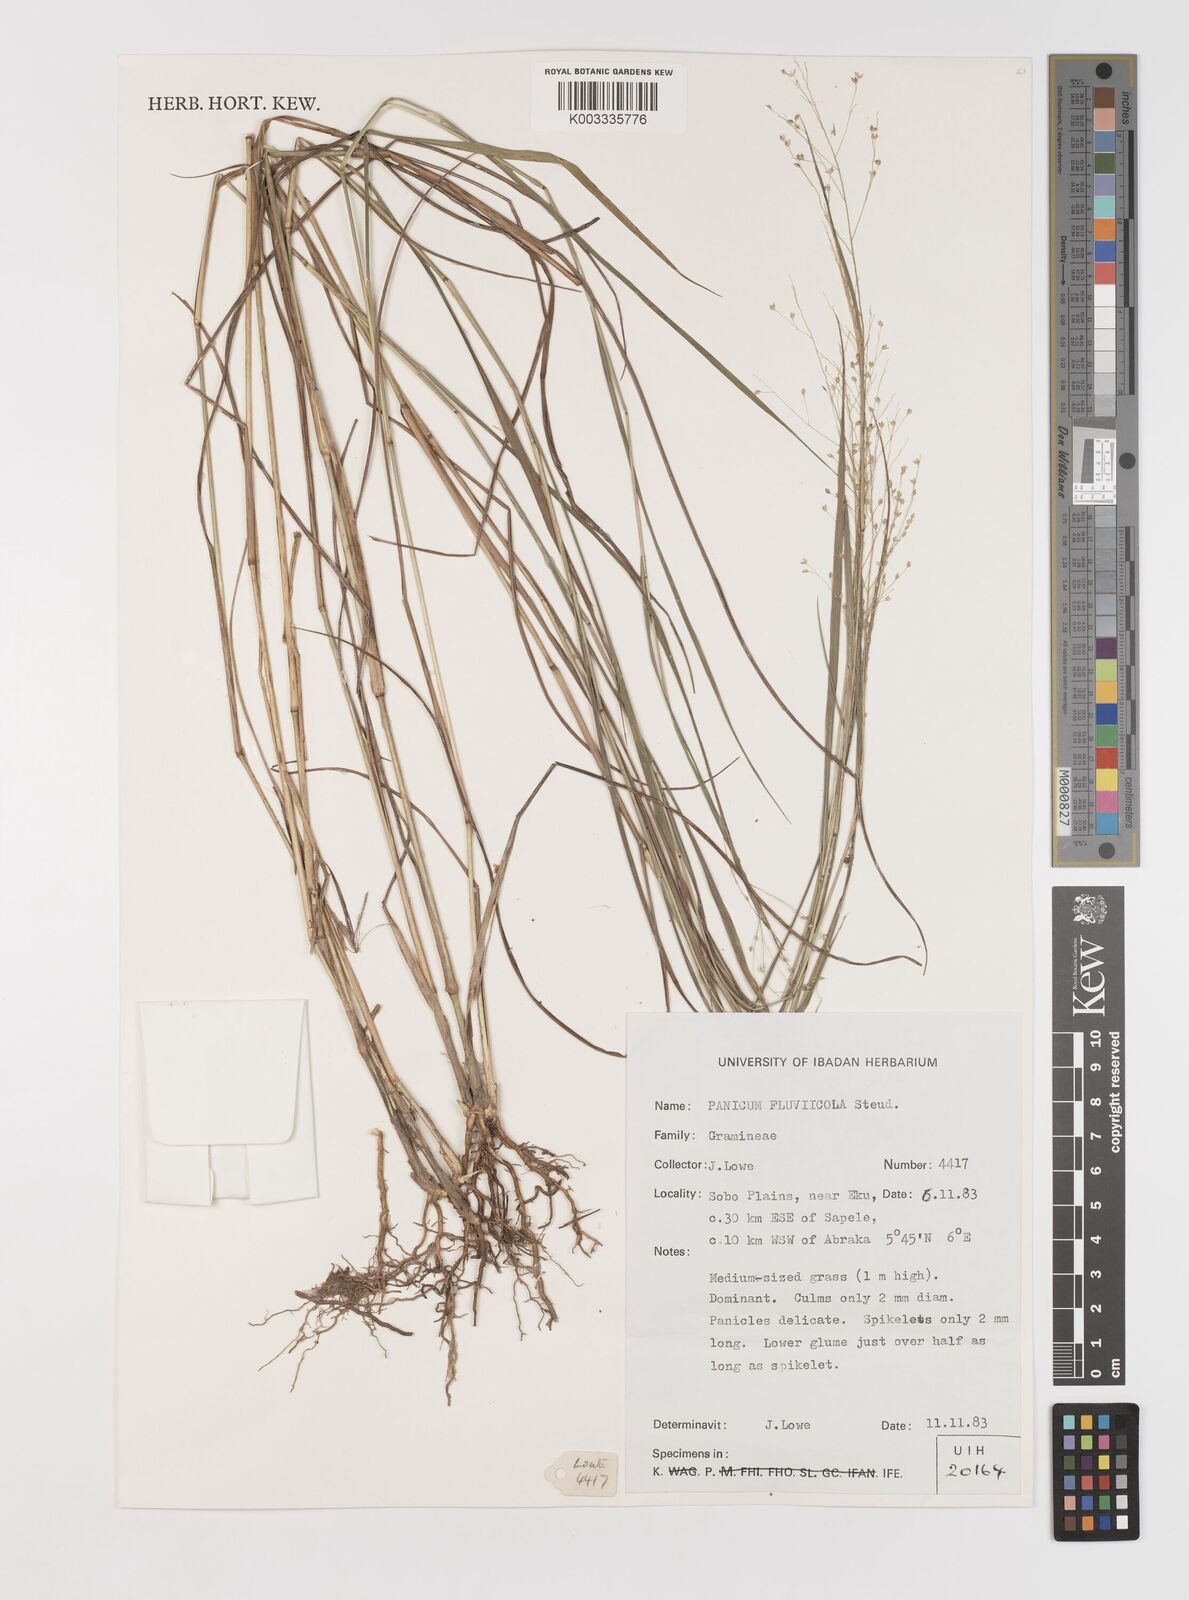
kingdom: Plantae
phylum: Tracheophyta
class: Liliopsida
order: Poales
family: Poaceae
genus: Panicum
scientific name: Panicum fluviicola
